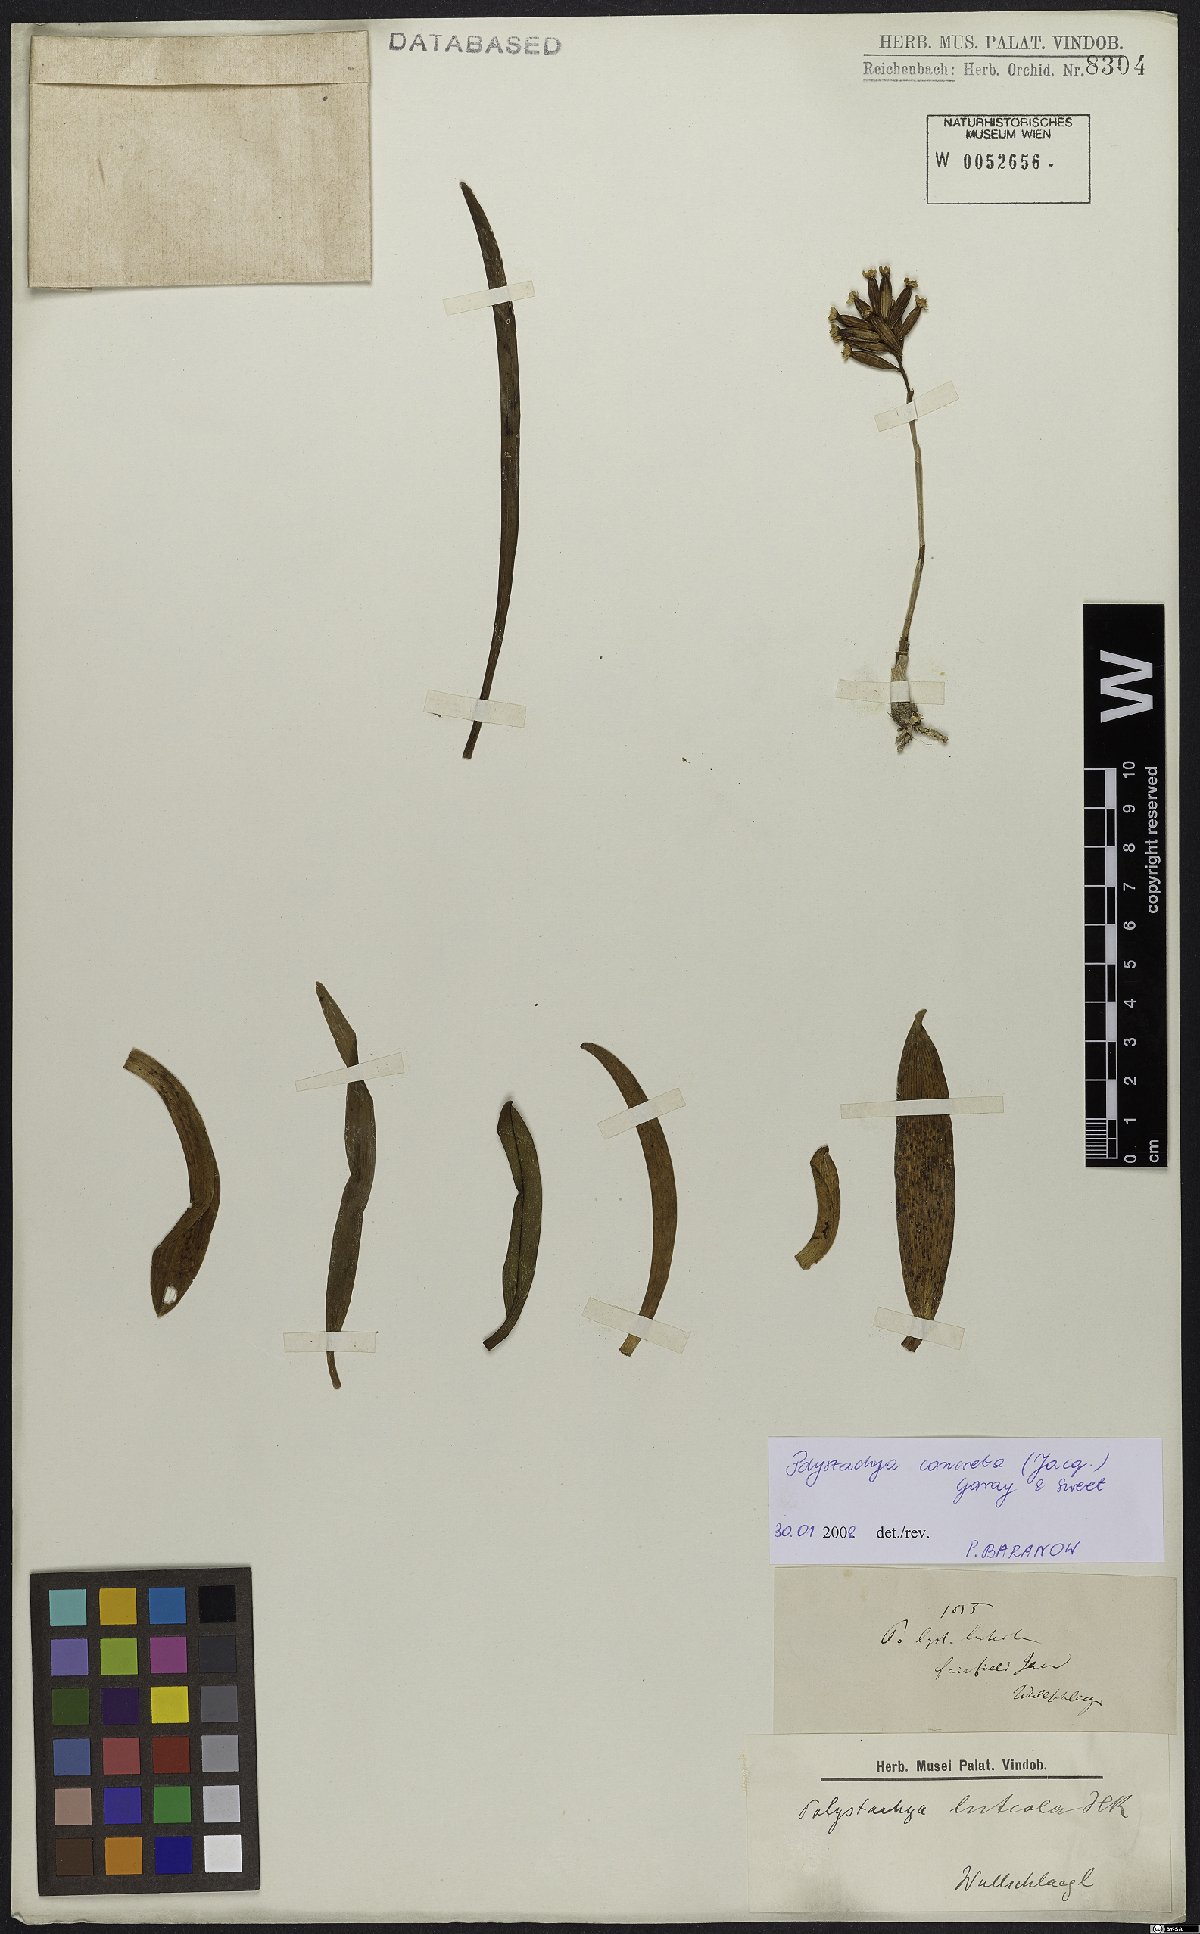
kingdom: Plantae
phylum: Tracheophyta
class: Liliopsida
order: Asparagales
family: Orchidaceae
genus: Polystachya
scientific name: Polystachya concreta
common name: Greater yellowspike orchid
